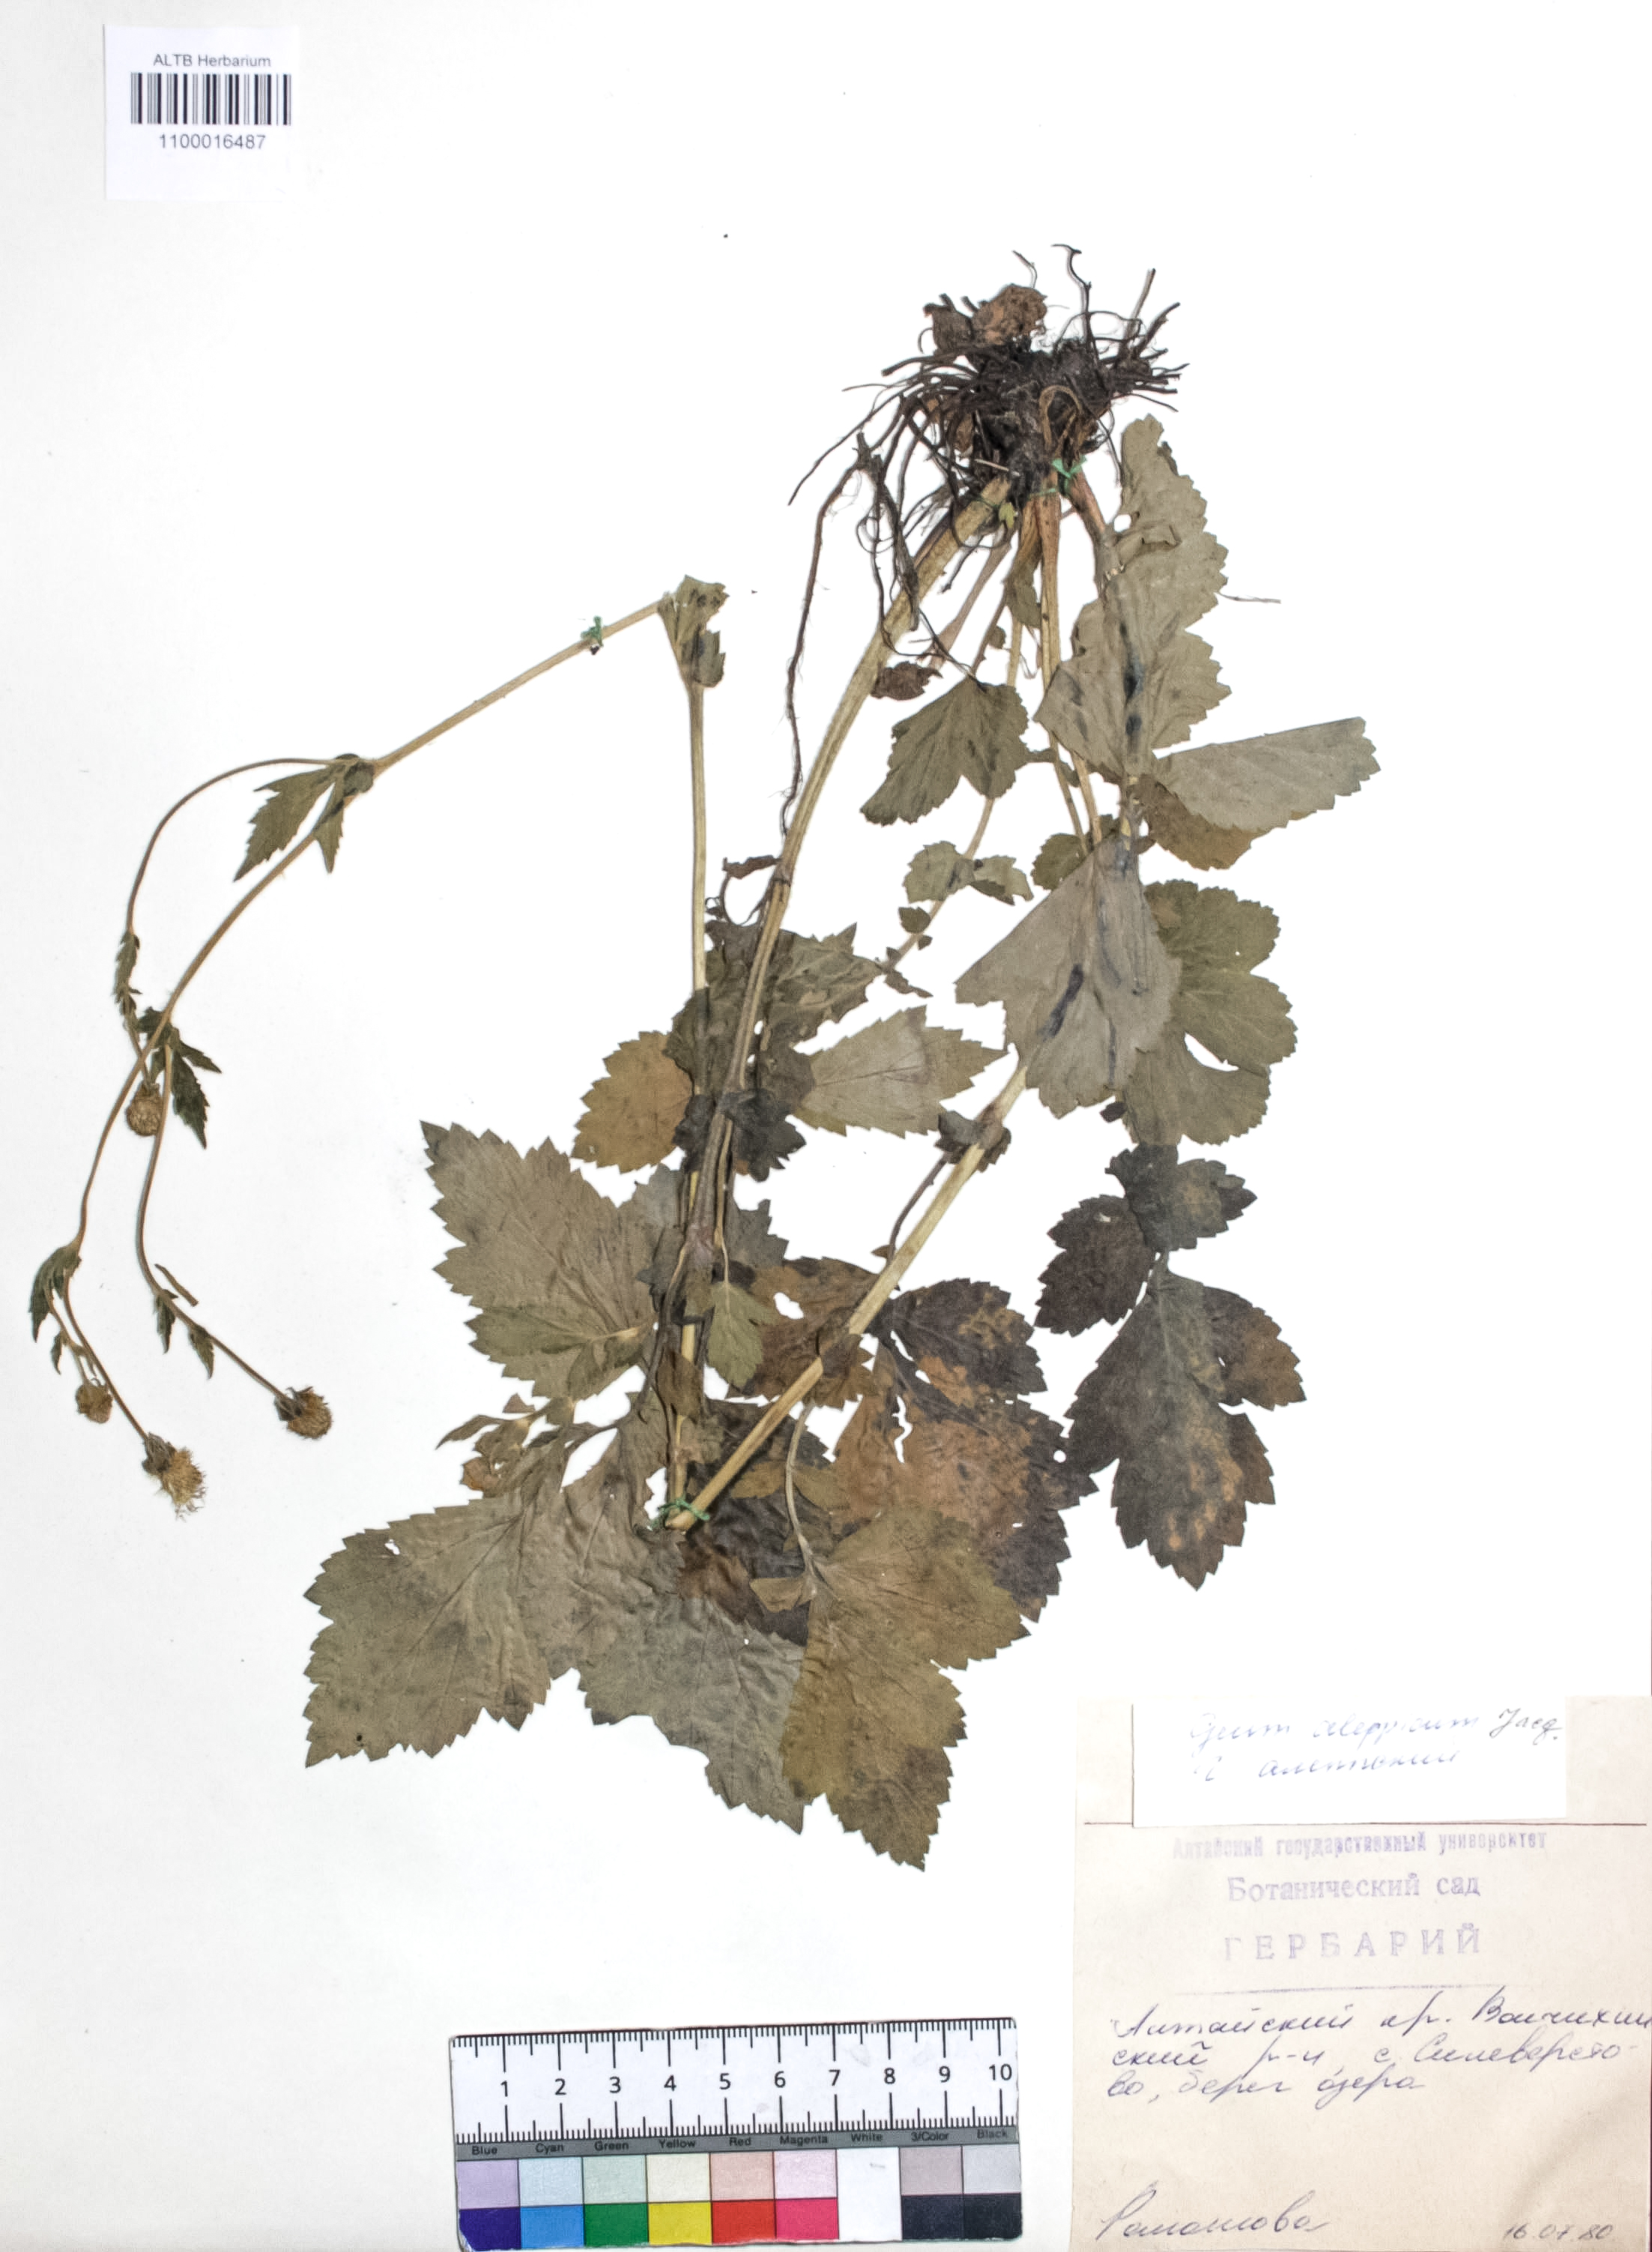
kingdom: Plantae
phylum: Tracheophyta
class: Magnoliopsida
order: Rosales
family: Rosaceae
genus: Geum
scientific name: Geum aleppicum
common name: Yellow avens
